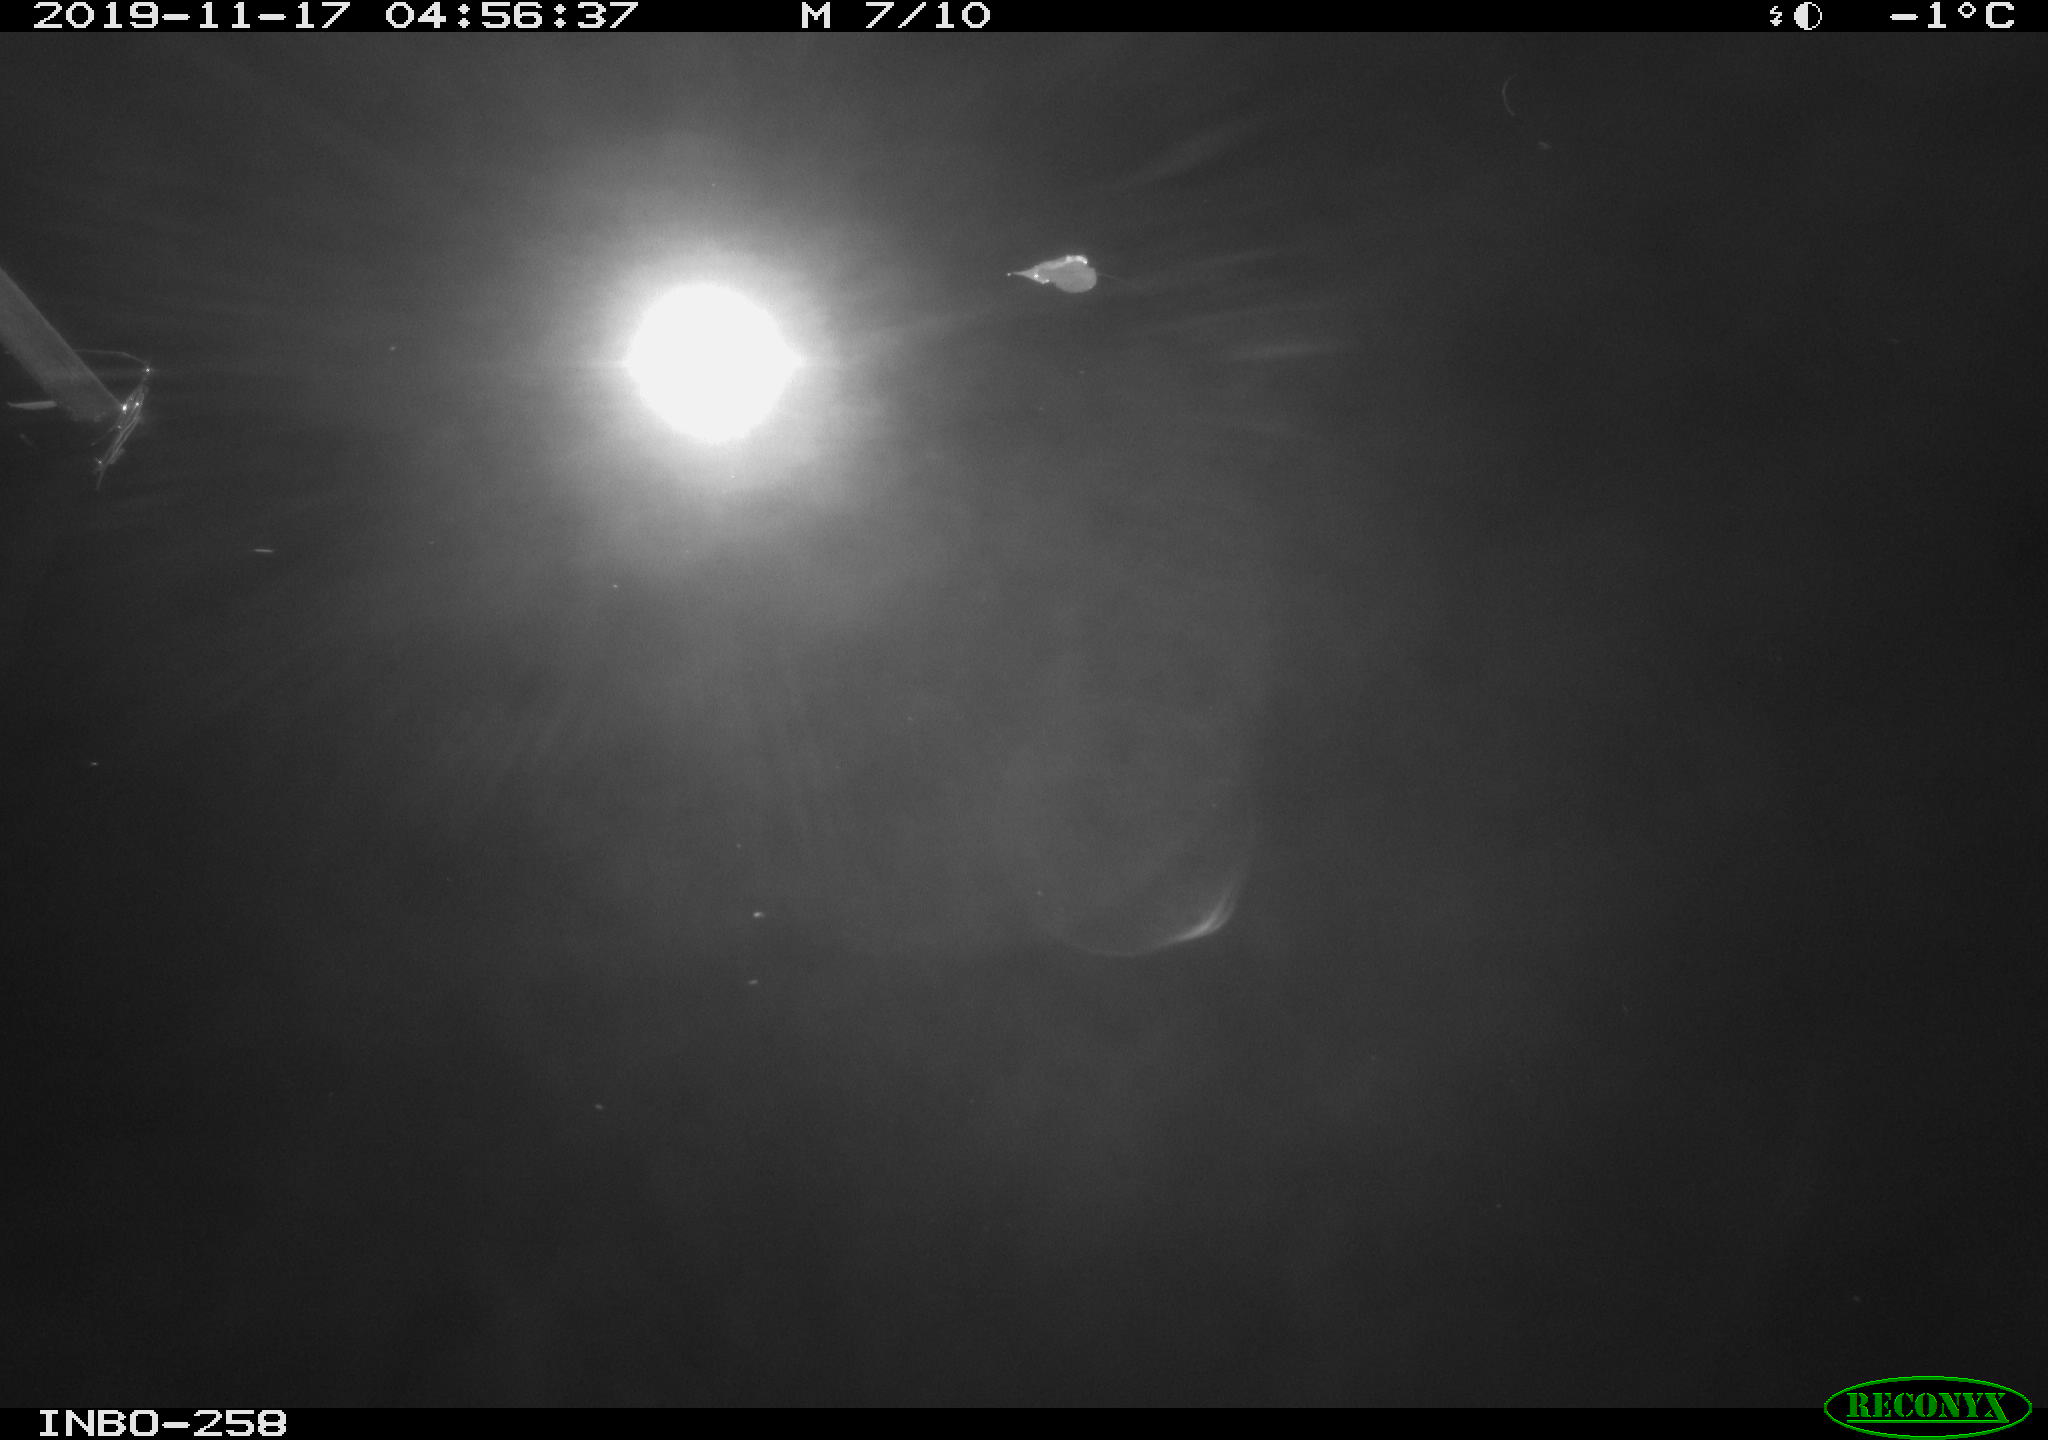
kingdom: Animalia
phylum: Chordata
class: Aves
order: Anseriformes
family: Anatidae
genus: Anas
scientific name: Anas platyrhynchos
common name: Mallard
